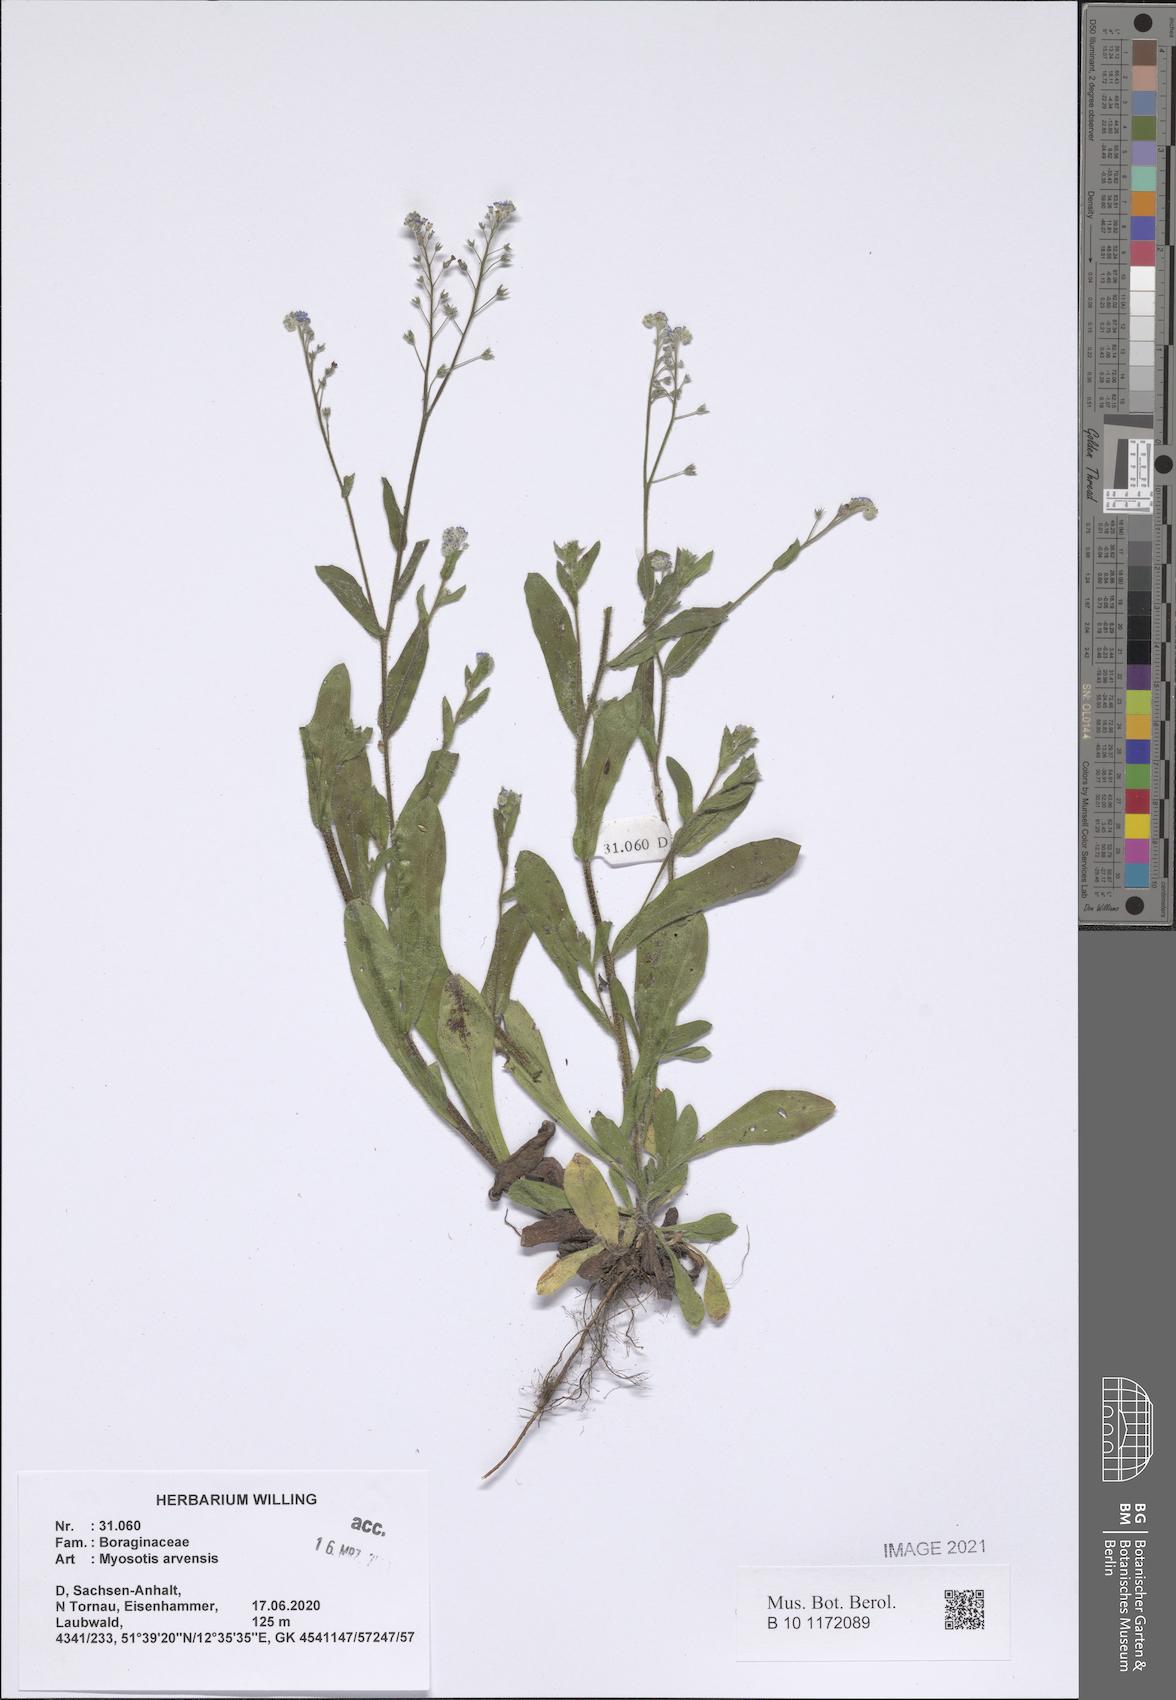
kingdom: Plantae
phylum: Tracheophyta
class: Magnoliopsida
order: Boraginales
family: Boraginaceae
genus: Myosotis
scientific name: Myosotis arvensis
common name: Field forget-me-not
